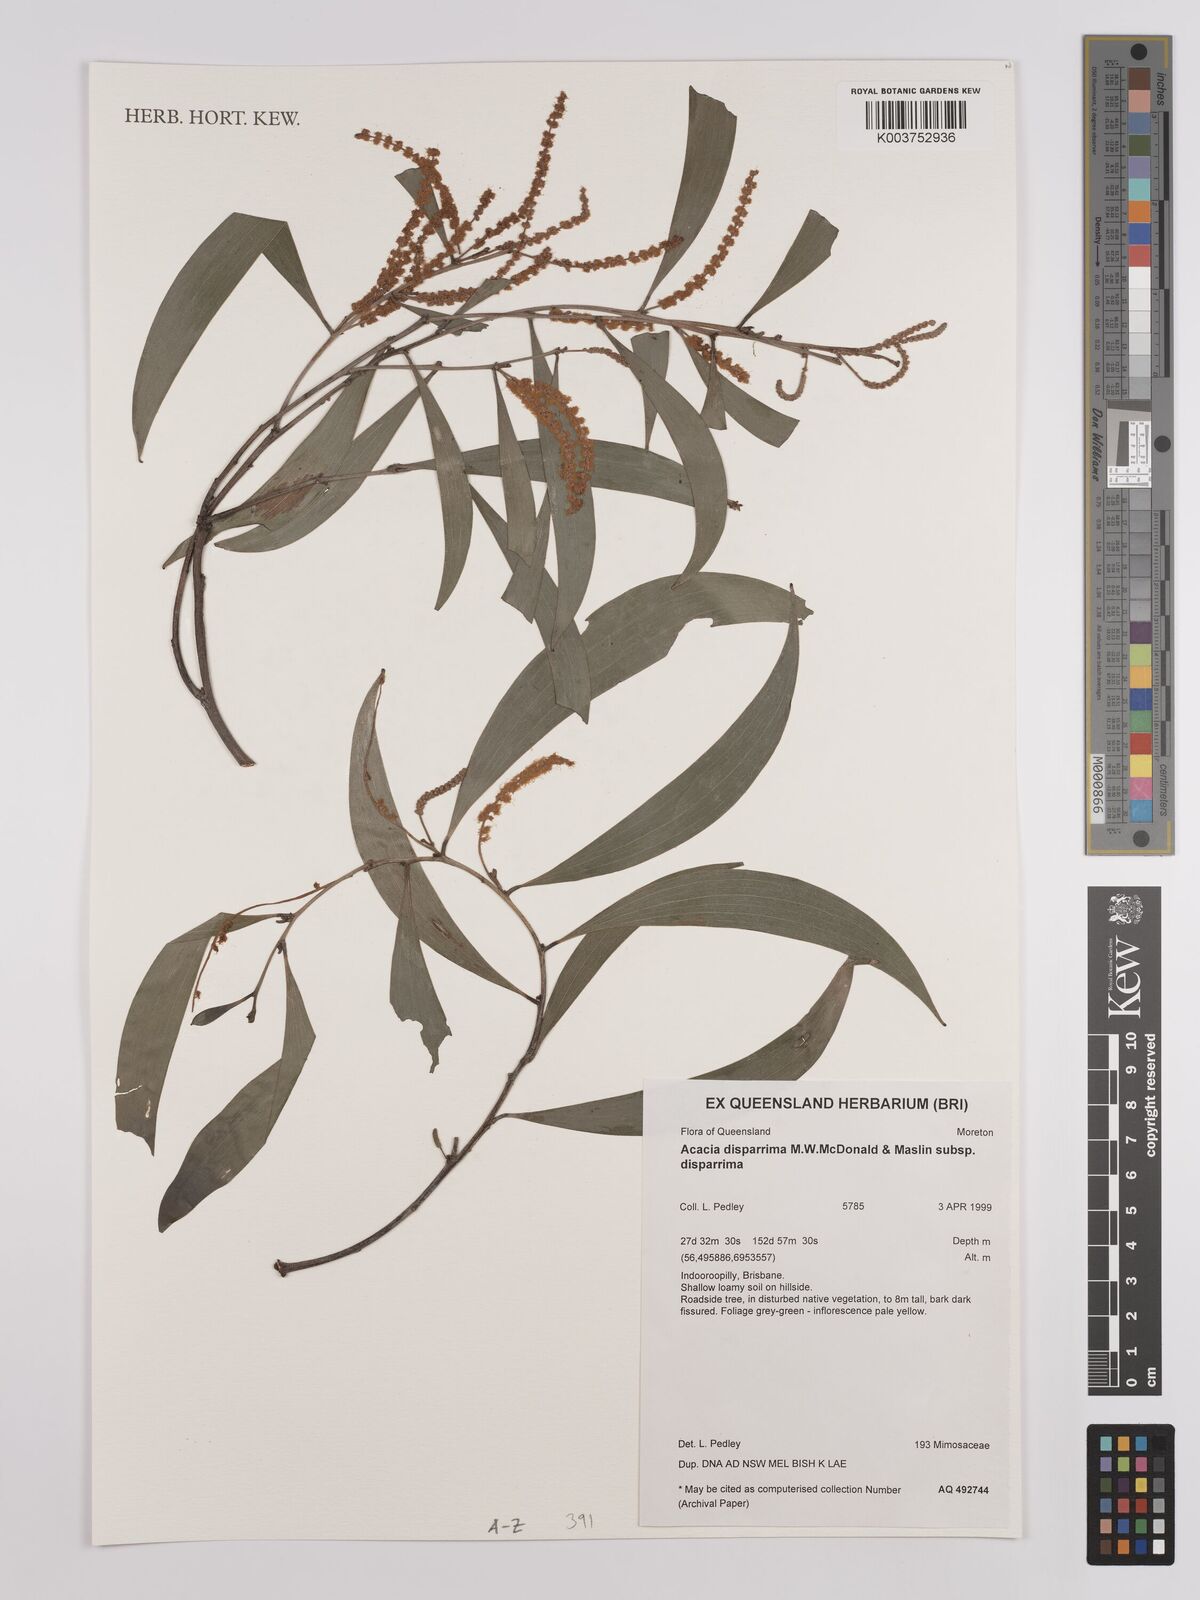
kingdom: Plantae
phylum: Tracheophyta
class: Magnoliopsida
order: Fabales
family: Fabaceae
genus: Acacia
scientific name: Acacia disparrima
